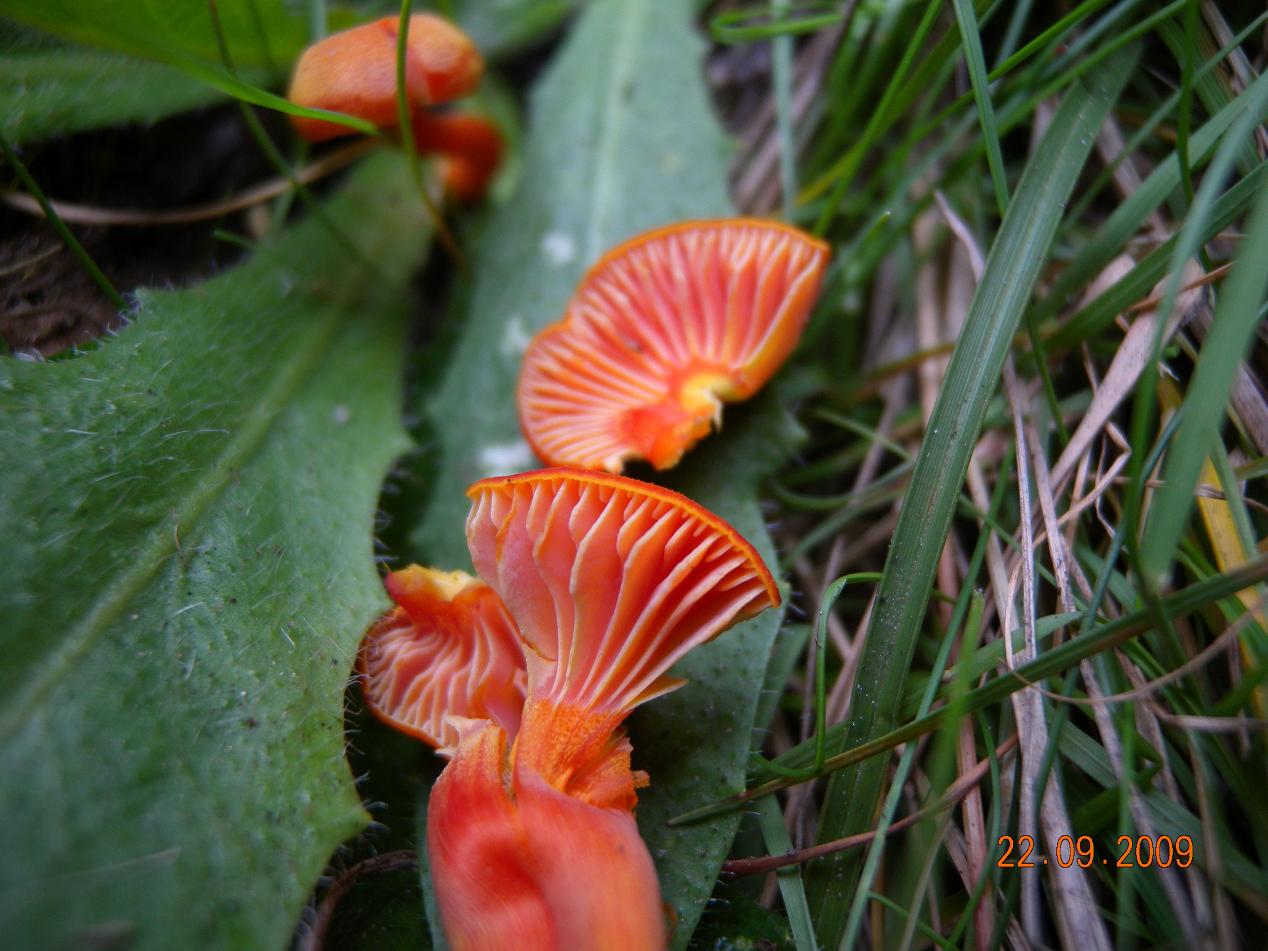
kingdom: Fungi
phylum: Basidiomycota
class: Agaricomycetes
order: Agaricales
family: Hygrophoraceae
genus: Hygrocybe
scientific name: Hygrocybe miniata
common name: mønje-vokshat
